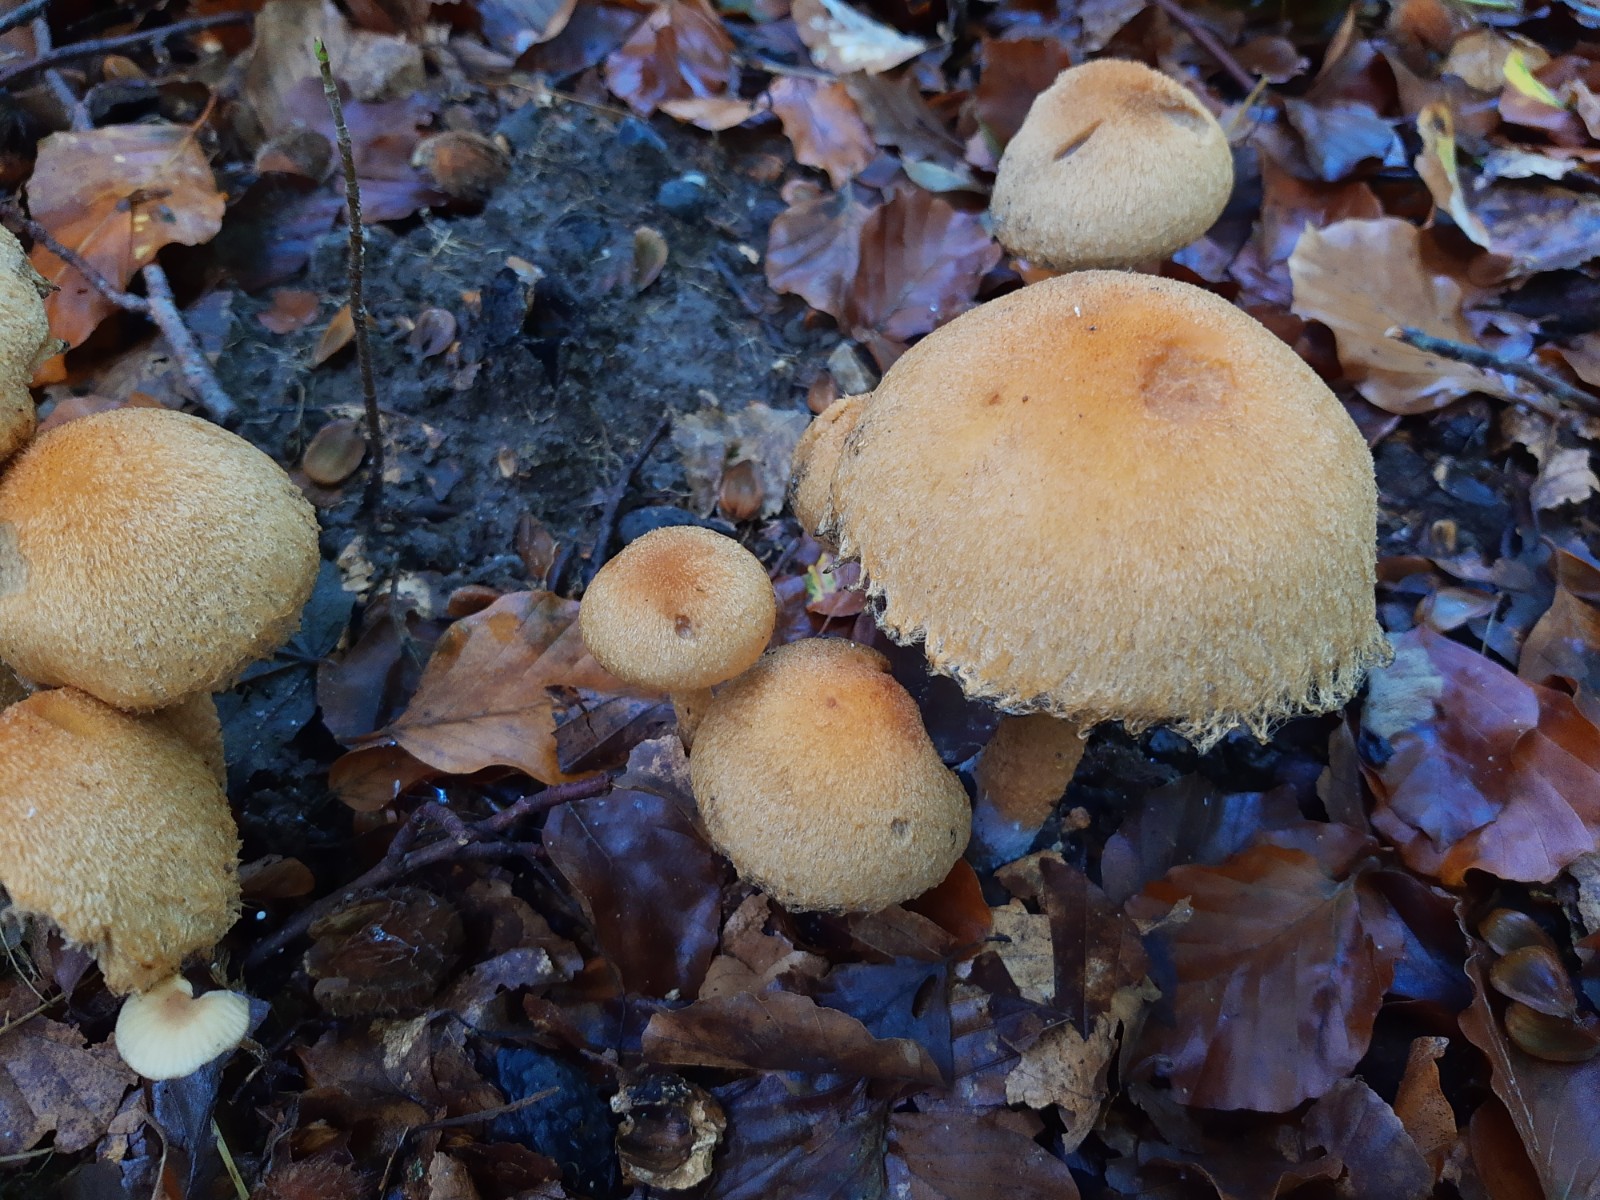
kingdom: Fungi
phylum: Basidiomycota
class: Agaricomycetes
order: Agaricales
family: Psathyrellaceae
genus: Lacrymaria
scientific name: Lacrymaria lacrymabunda
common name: grædende mørkhat
